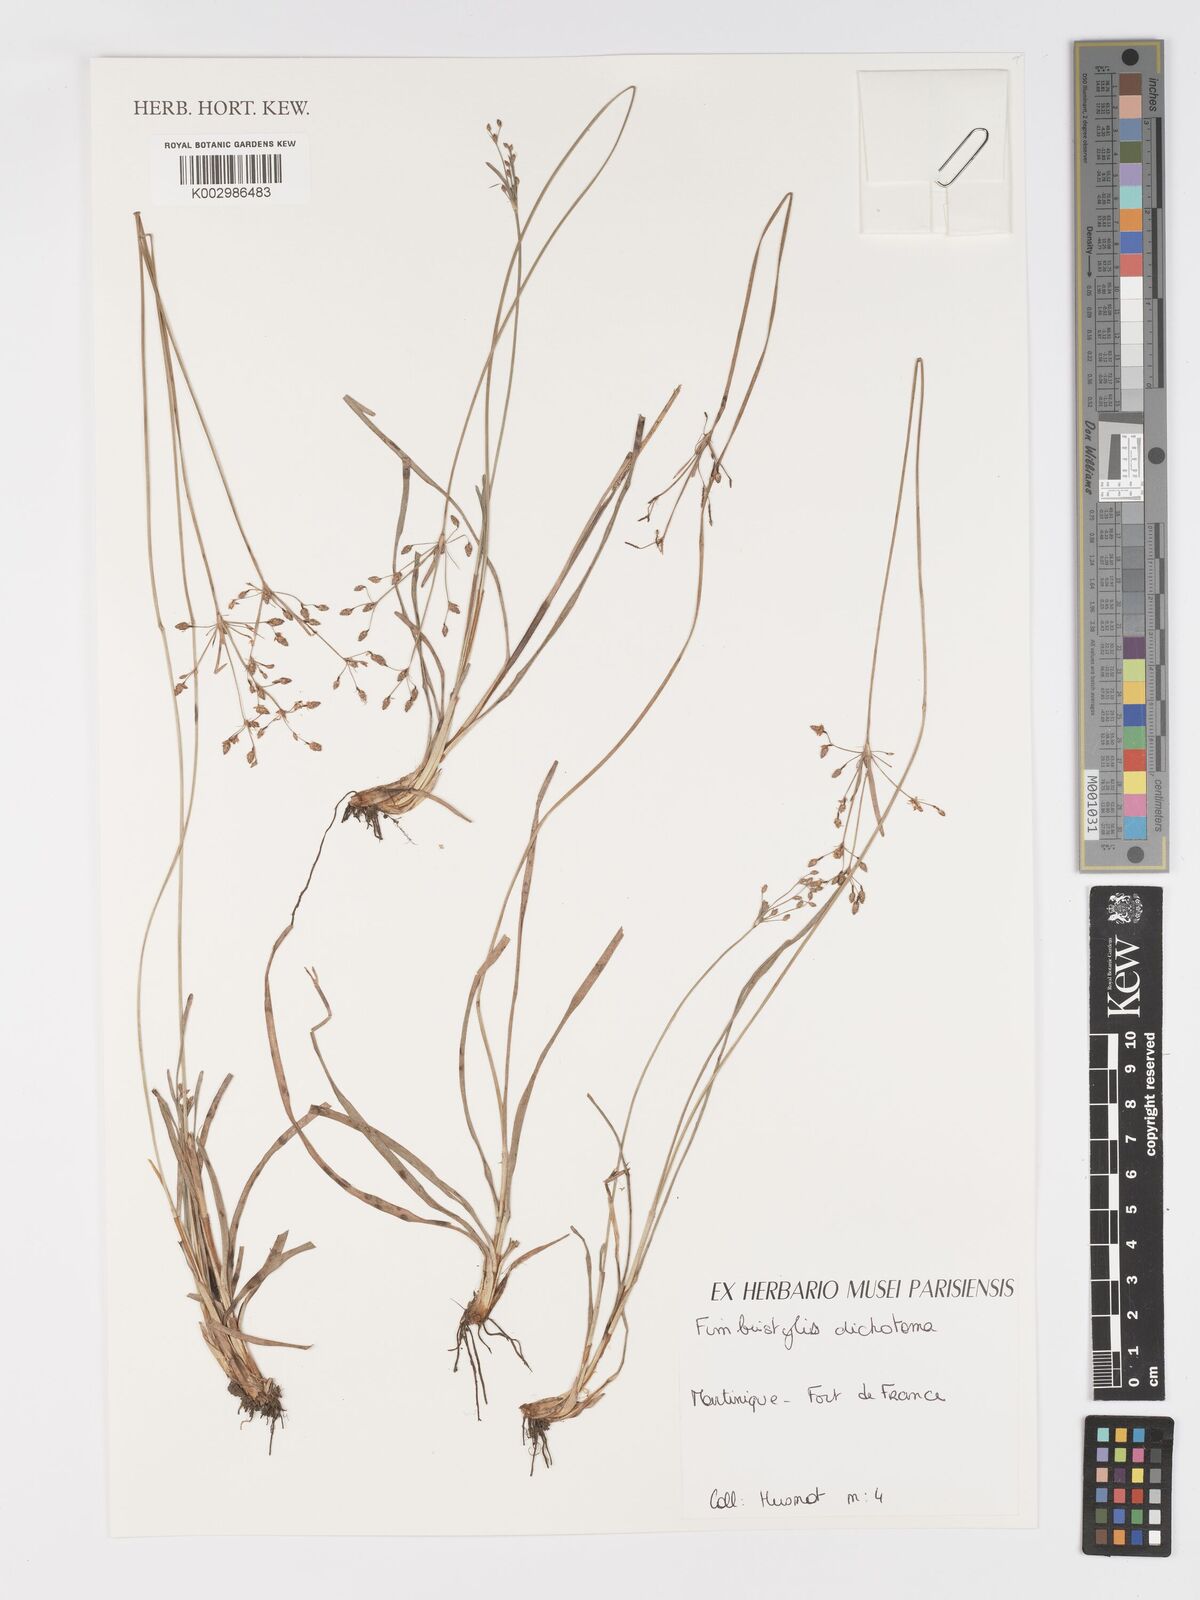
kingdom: Plantae
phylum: Tracheophyta
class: Liliopsida
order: Poales
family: Cyperaceae
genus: Fimbristylis
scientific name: Fimbristylis dichotoma
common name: Forked fimbry
